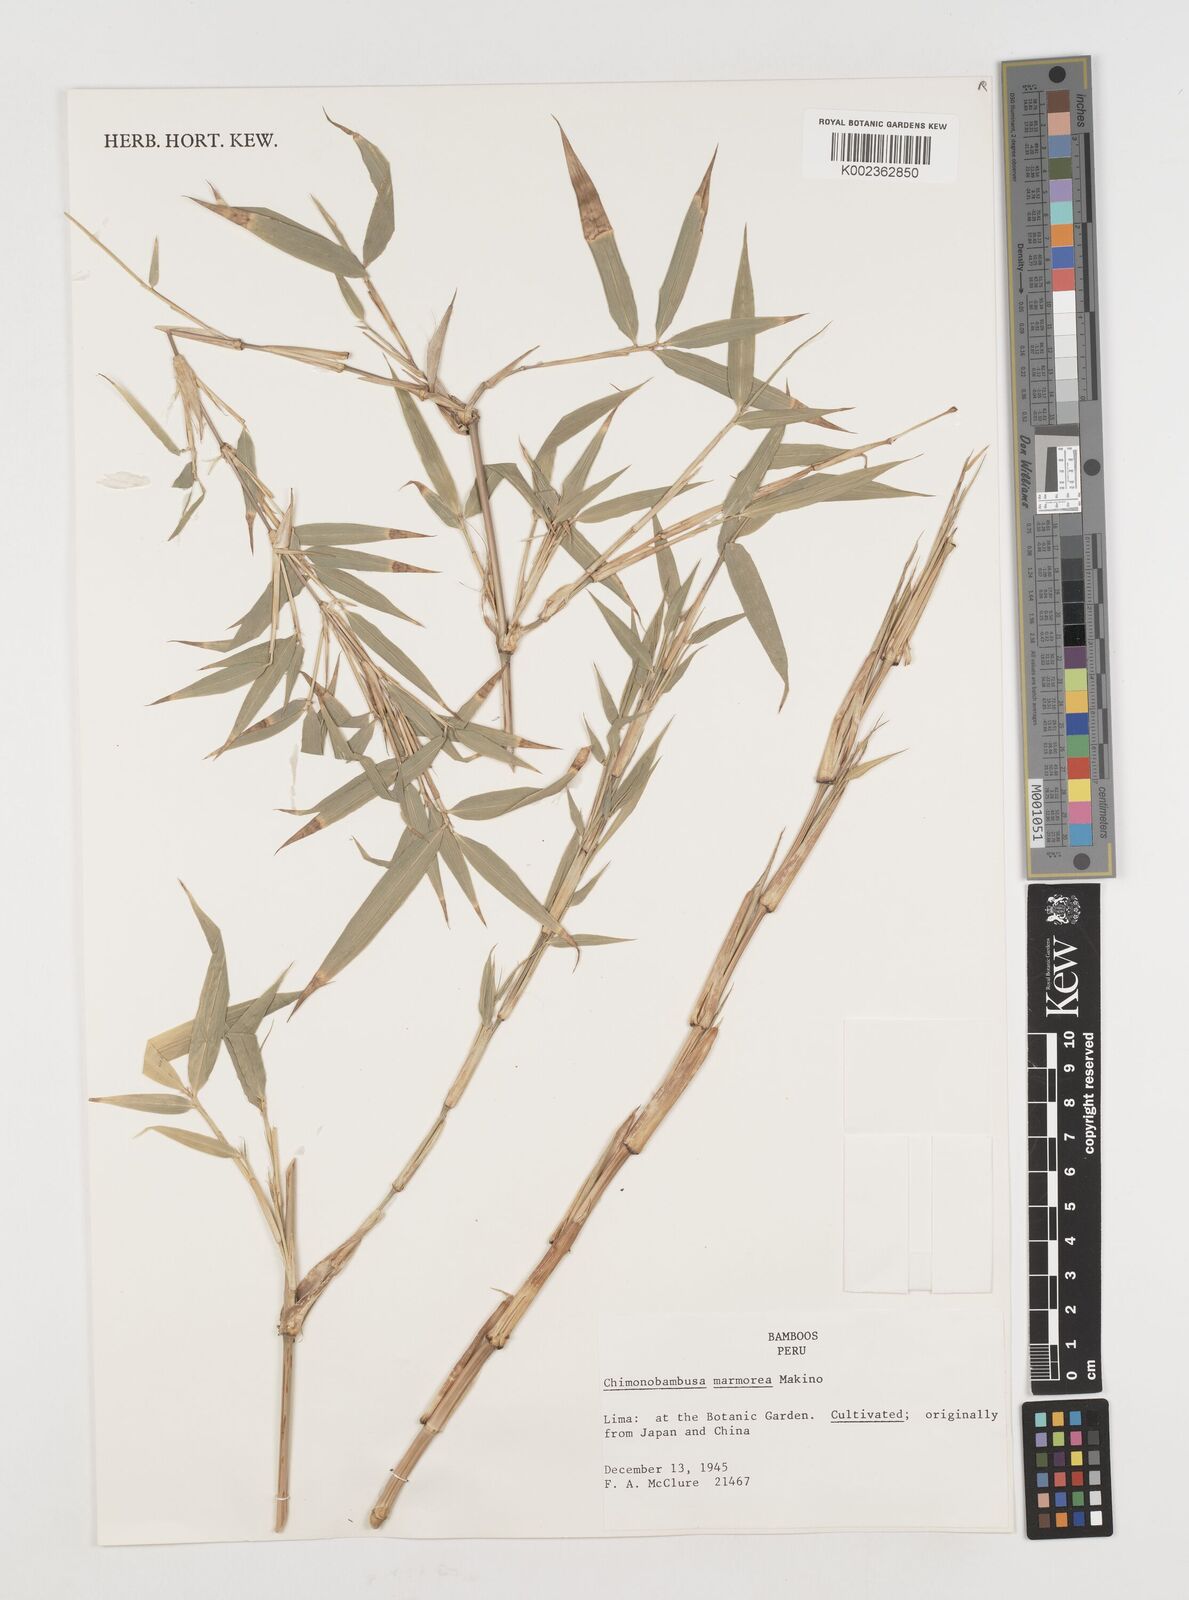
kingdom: Plantae
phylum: Tracheophyta
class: Liliopsida
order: Poales
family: Poaceae
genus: Chimonobambusa
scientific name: Chimonobambusa marmorea
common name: Marbled bamboo
